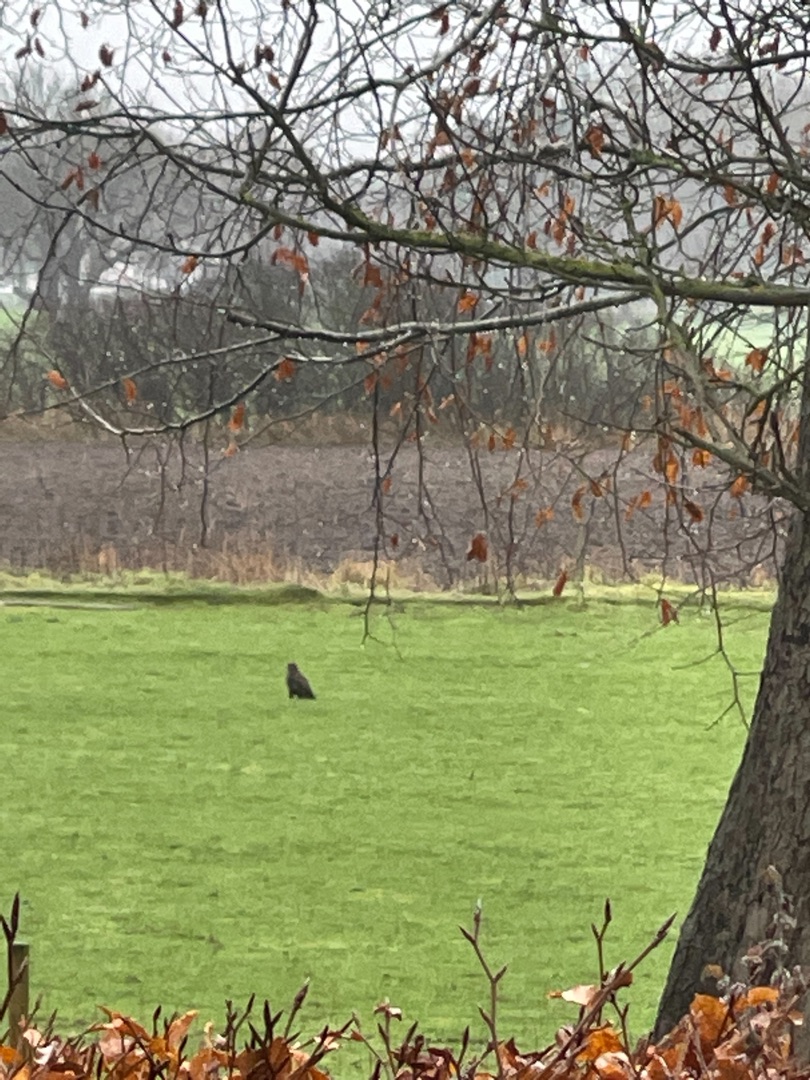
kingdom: Animalia
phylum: Chordata
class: Aves
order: Accipitriformes
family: Accipitridae
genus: Buteo
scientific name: Buteo buteo
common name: Musvåge
